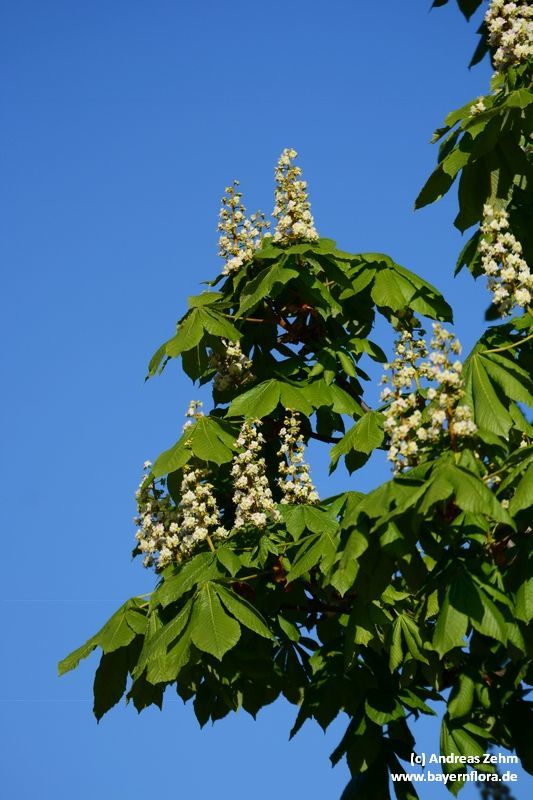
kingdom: Plantae
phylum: Tracheophyta
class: Magnoliopsida
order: Sapindales
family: Sapindaceae
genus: Aesculus
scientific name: Aesculus hippocastanum
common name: Horse-chestnut
